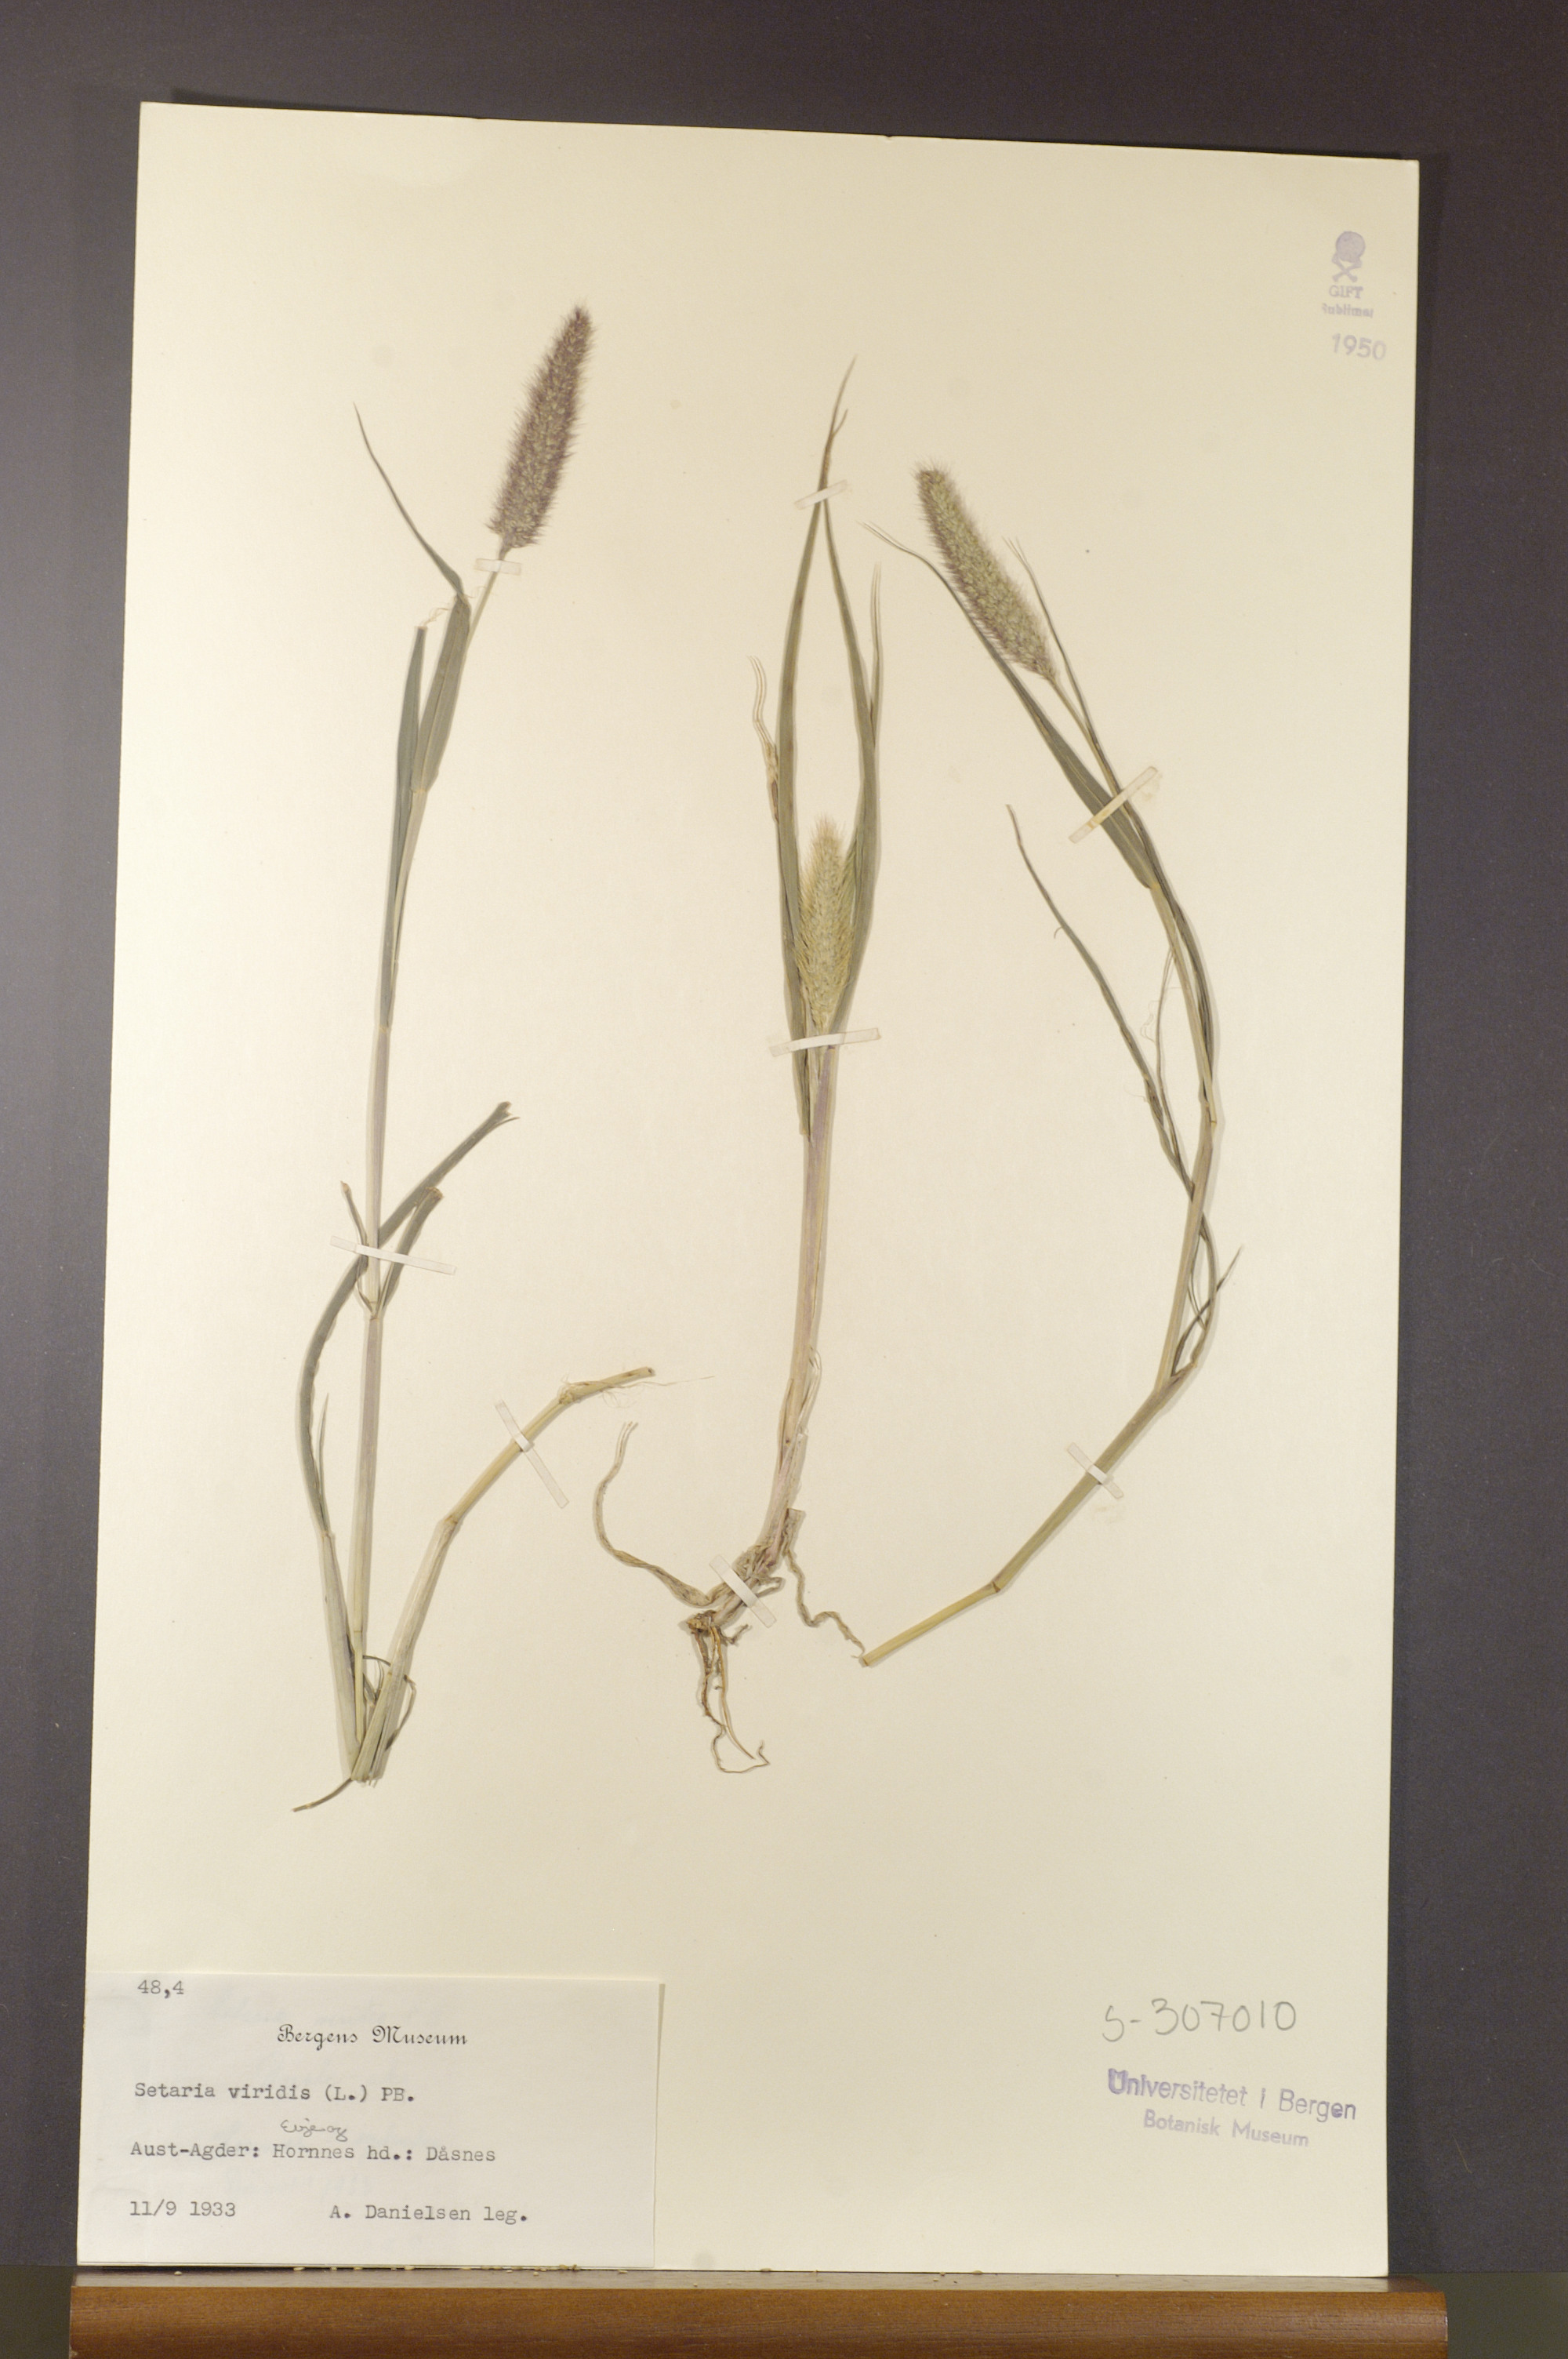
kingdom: Plantae
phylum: Tracheophyta
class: Liliopsida
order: Poales
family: Poaceae
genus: Setaria
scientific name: Setaria viridis
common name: Green bristlegrass
